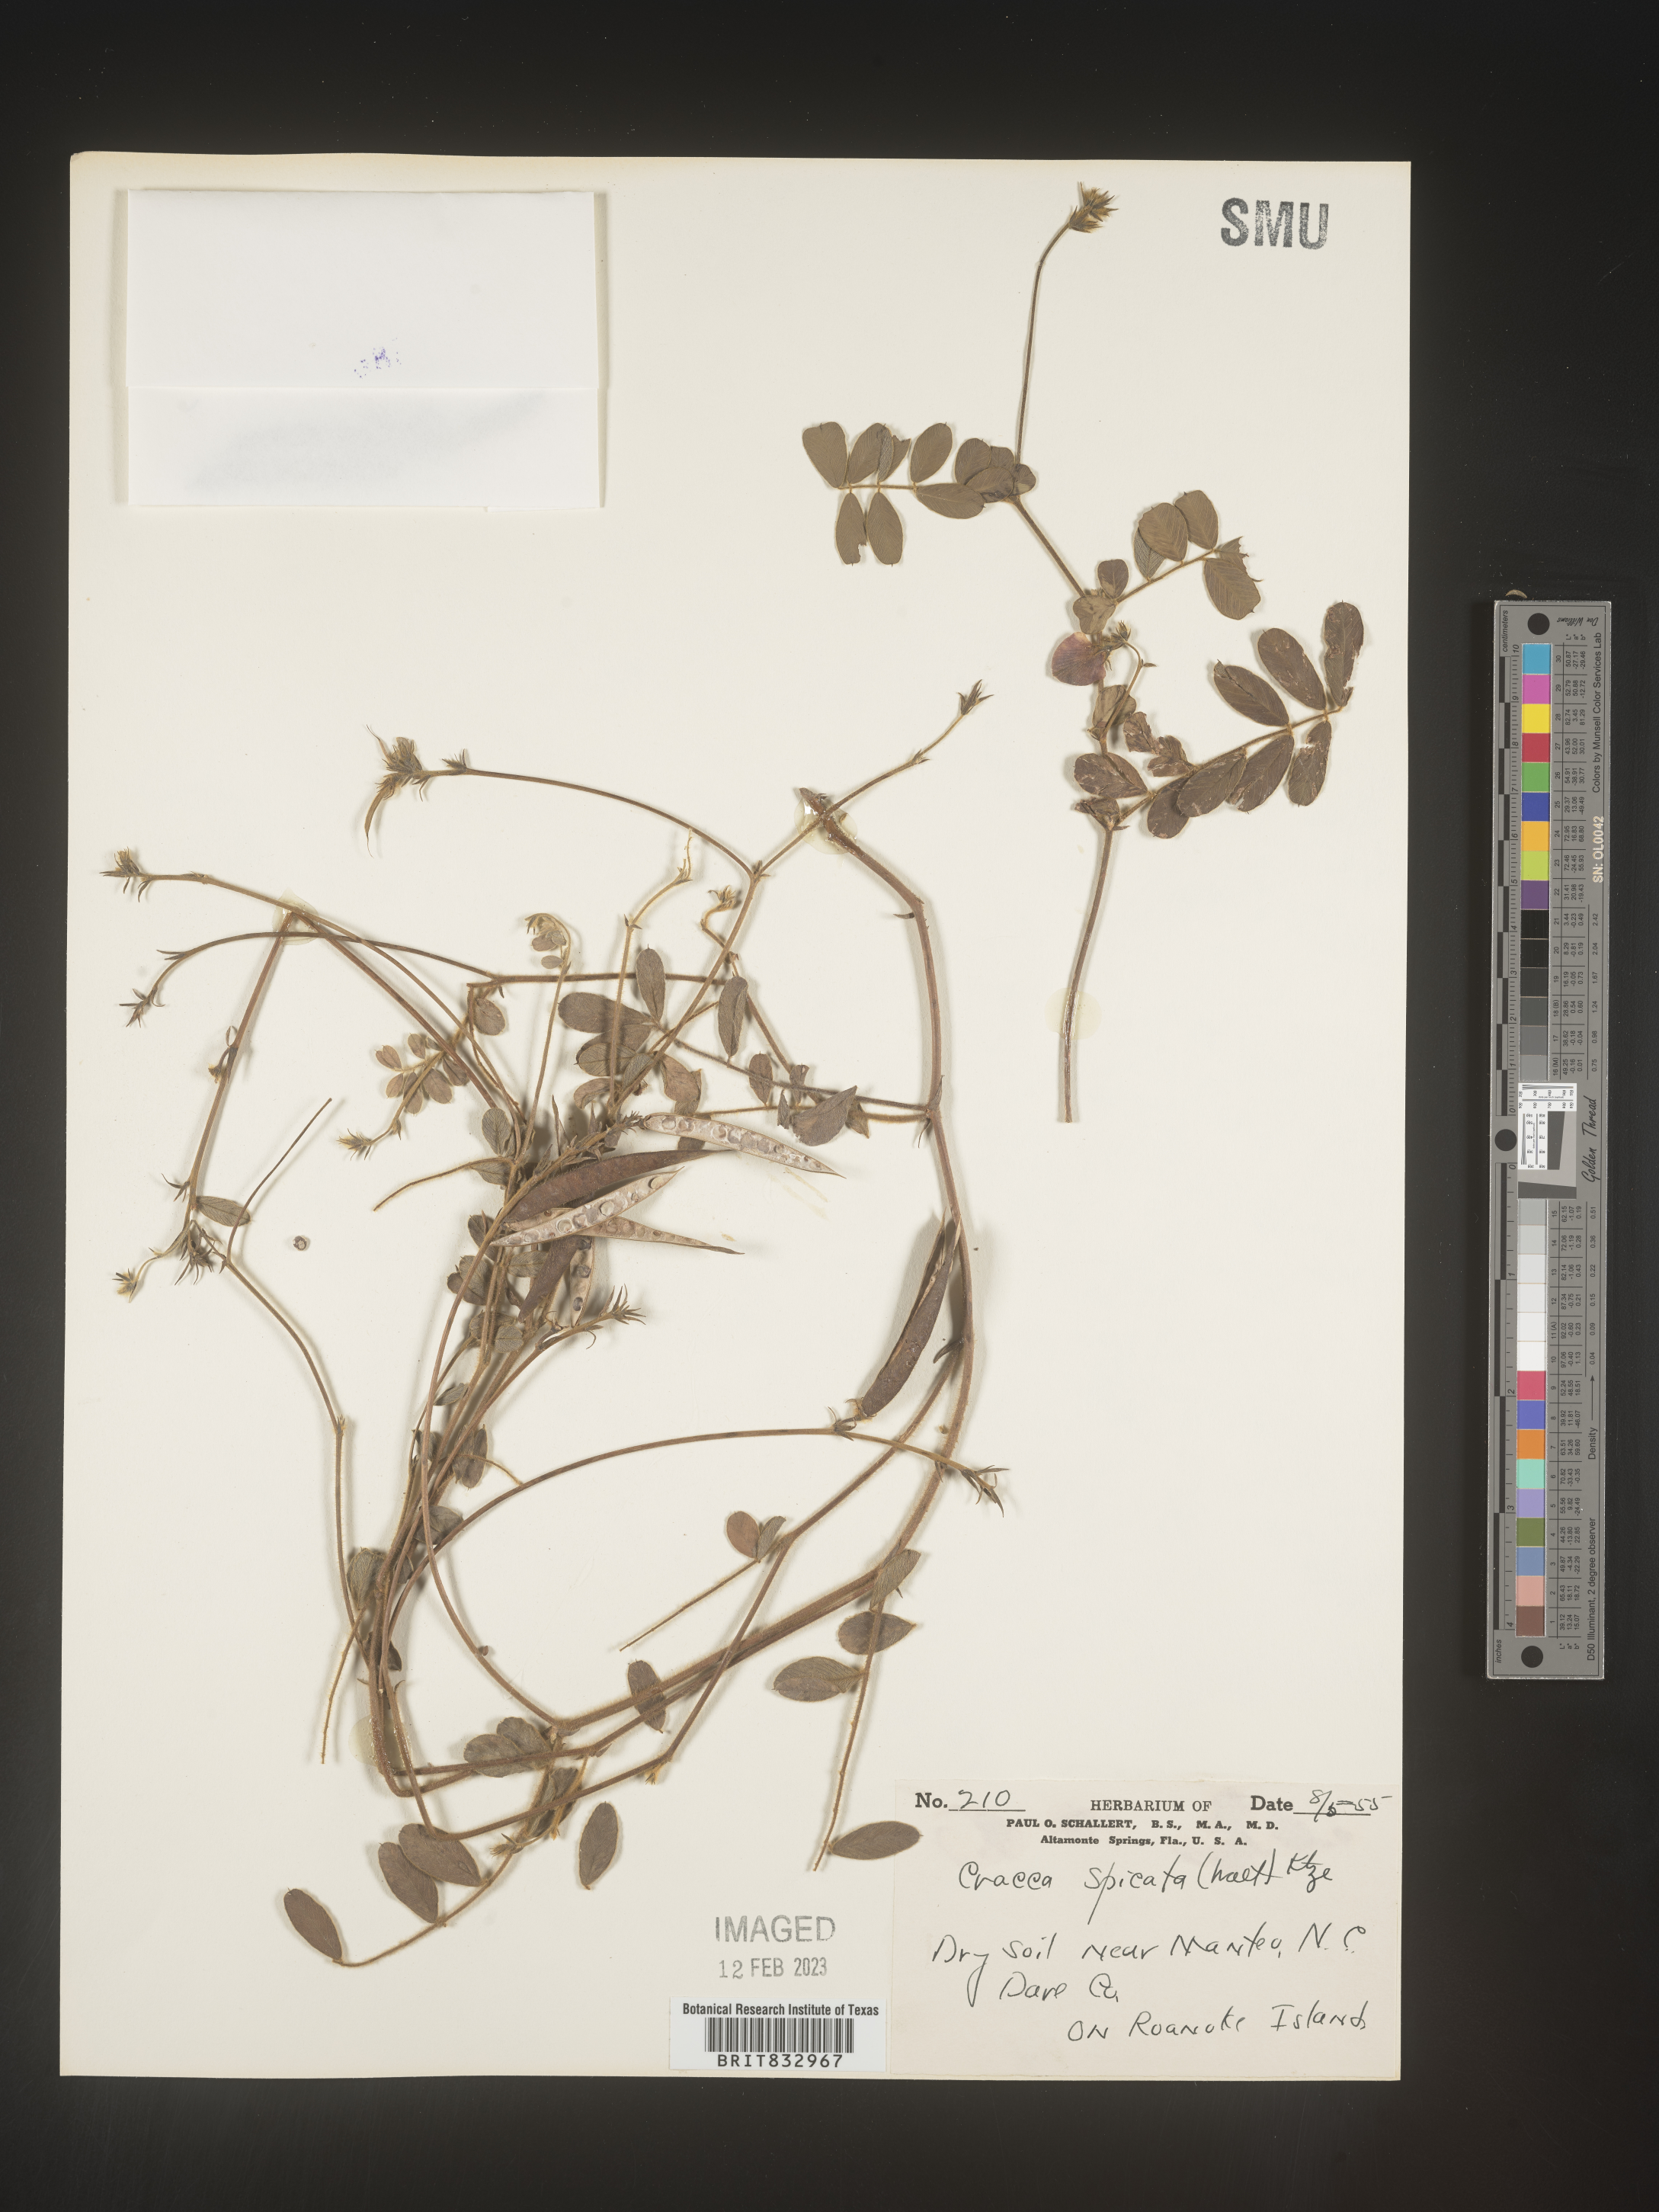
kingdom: Plantae
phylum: Tracheophyta
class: Magnoliopsida
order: Fabales
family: Fabaceae
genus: Tephrosia
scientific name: Tephrosia spicata
